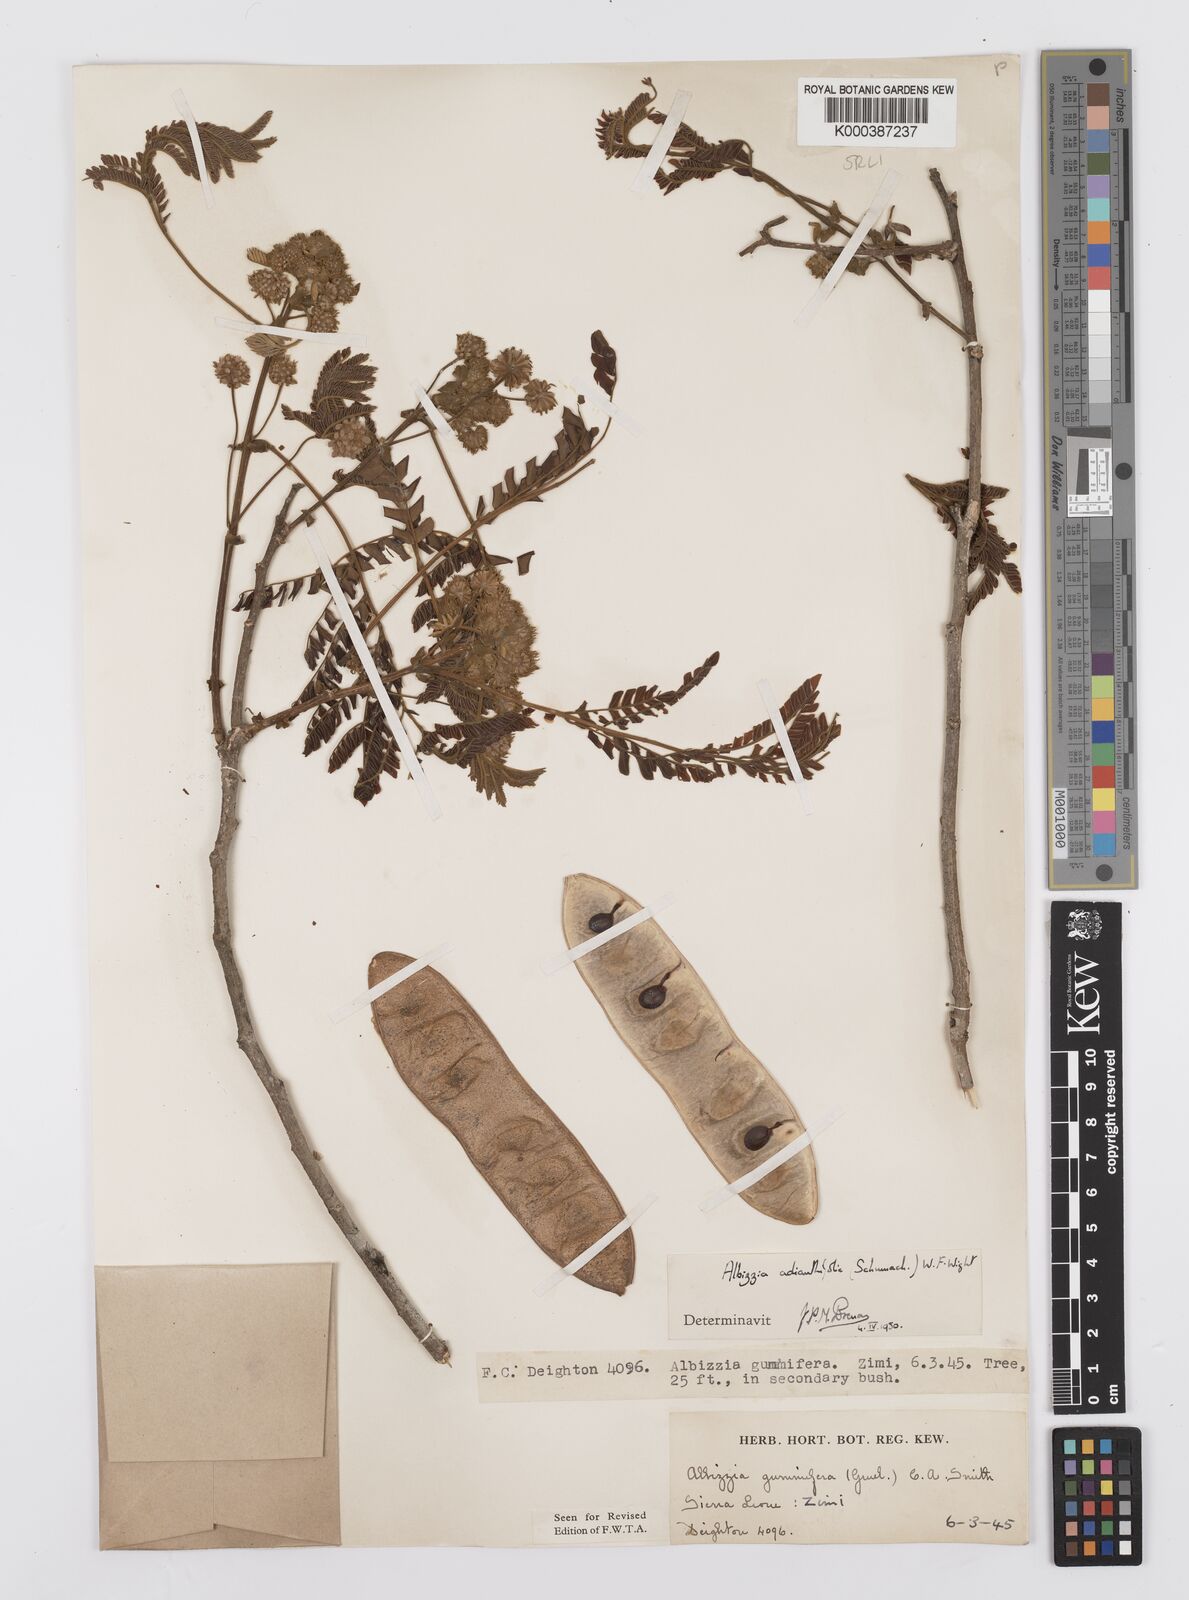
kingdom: Plantae
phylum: Tracheophyta
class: Magnoliopsida
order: Fabales
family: Fabaceae
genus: Albizia
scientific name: Albizia adianthifolia
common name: West african albizia
